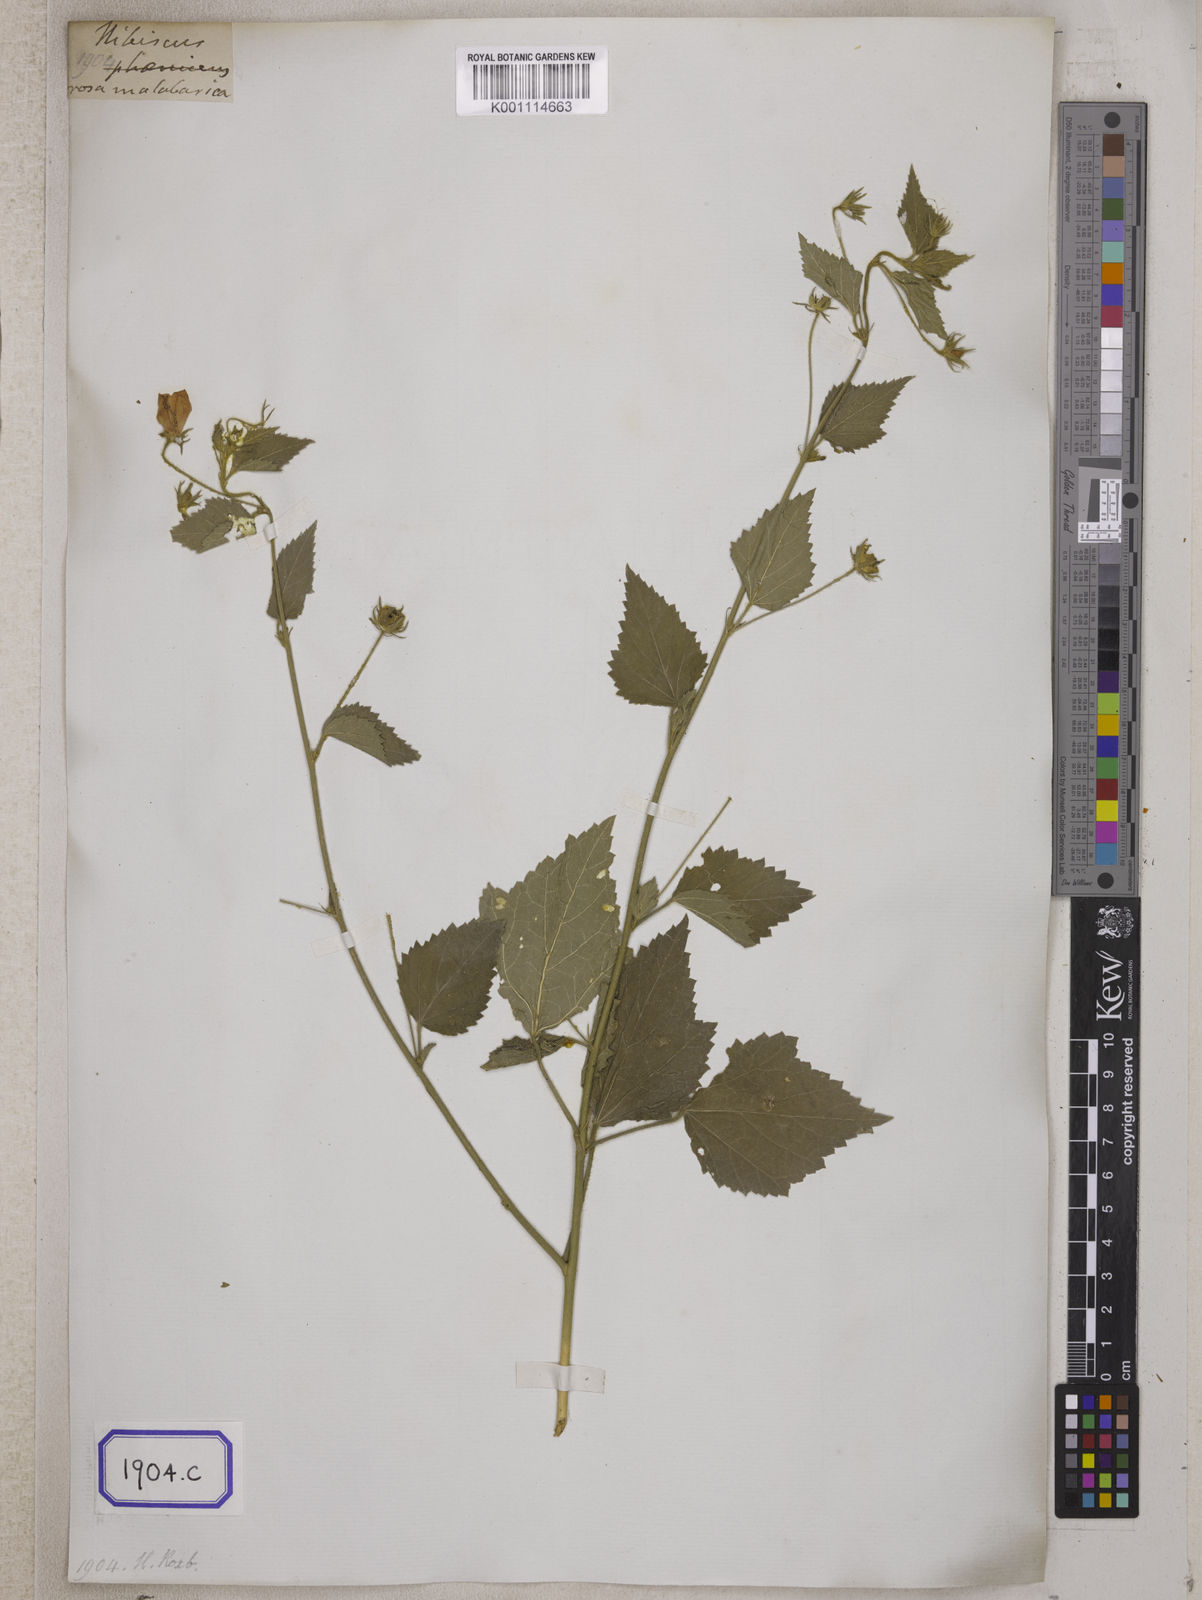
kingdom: Plantae
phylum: Tracheophyta
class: Magnoliopsida
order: Malvales
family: Malvaceae
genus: Hibiscus
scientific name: Hibiscus phoeniceus
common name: Brazilian rosemallow
